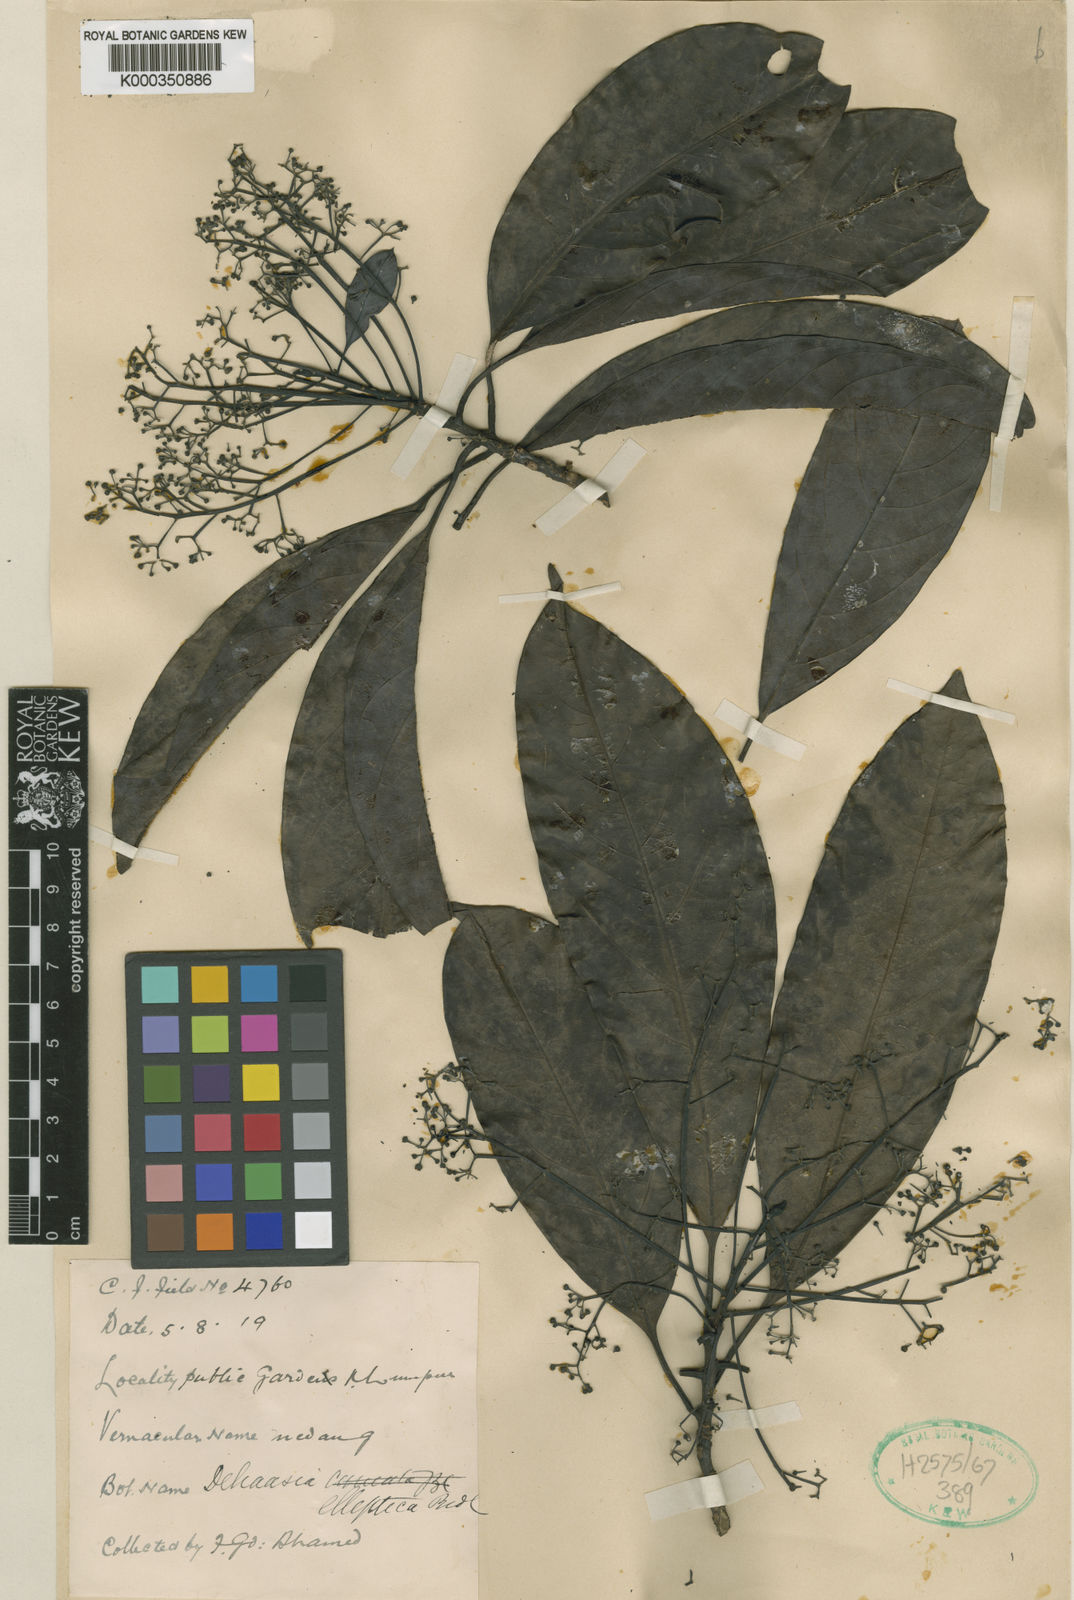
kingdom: Plantae
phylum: Tracheophyta
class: Magnoliopsida
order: Laurales
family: Lauraceae
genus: Dehaasia
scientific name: Dehaasia polyneura
